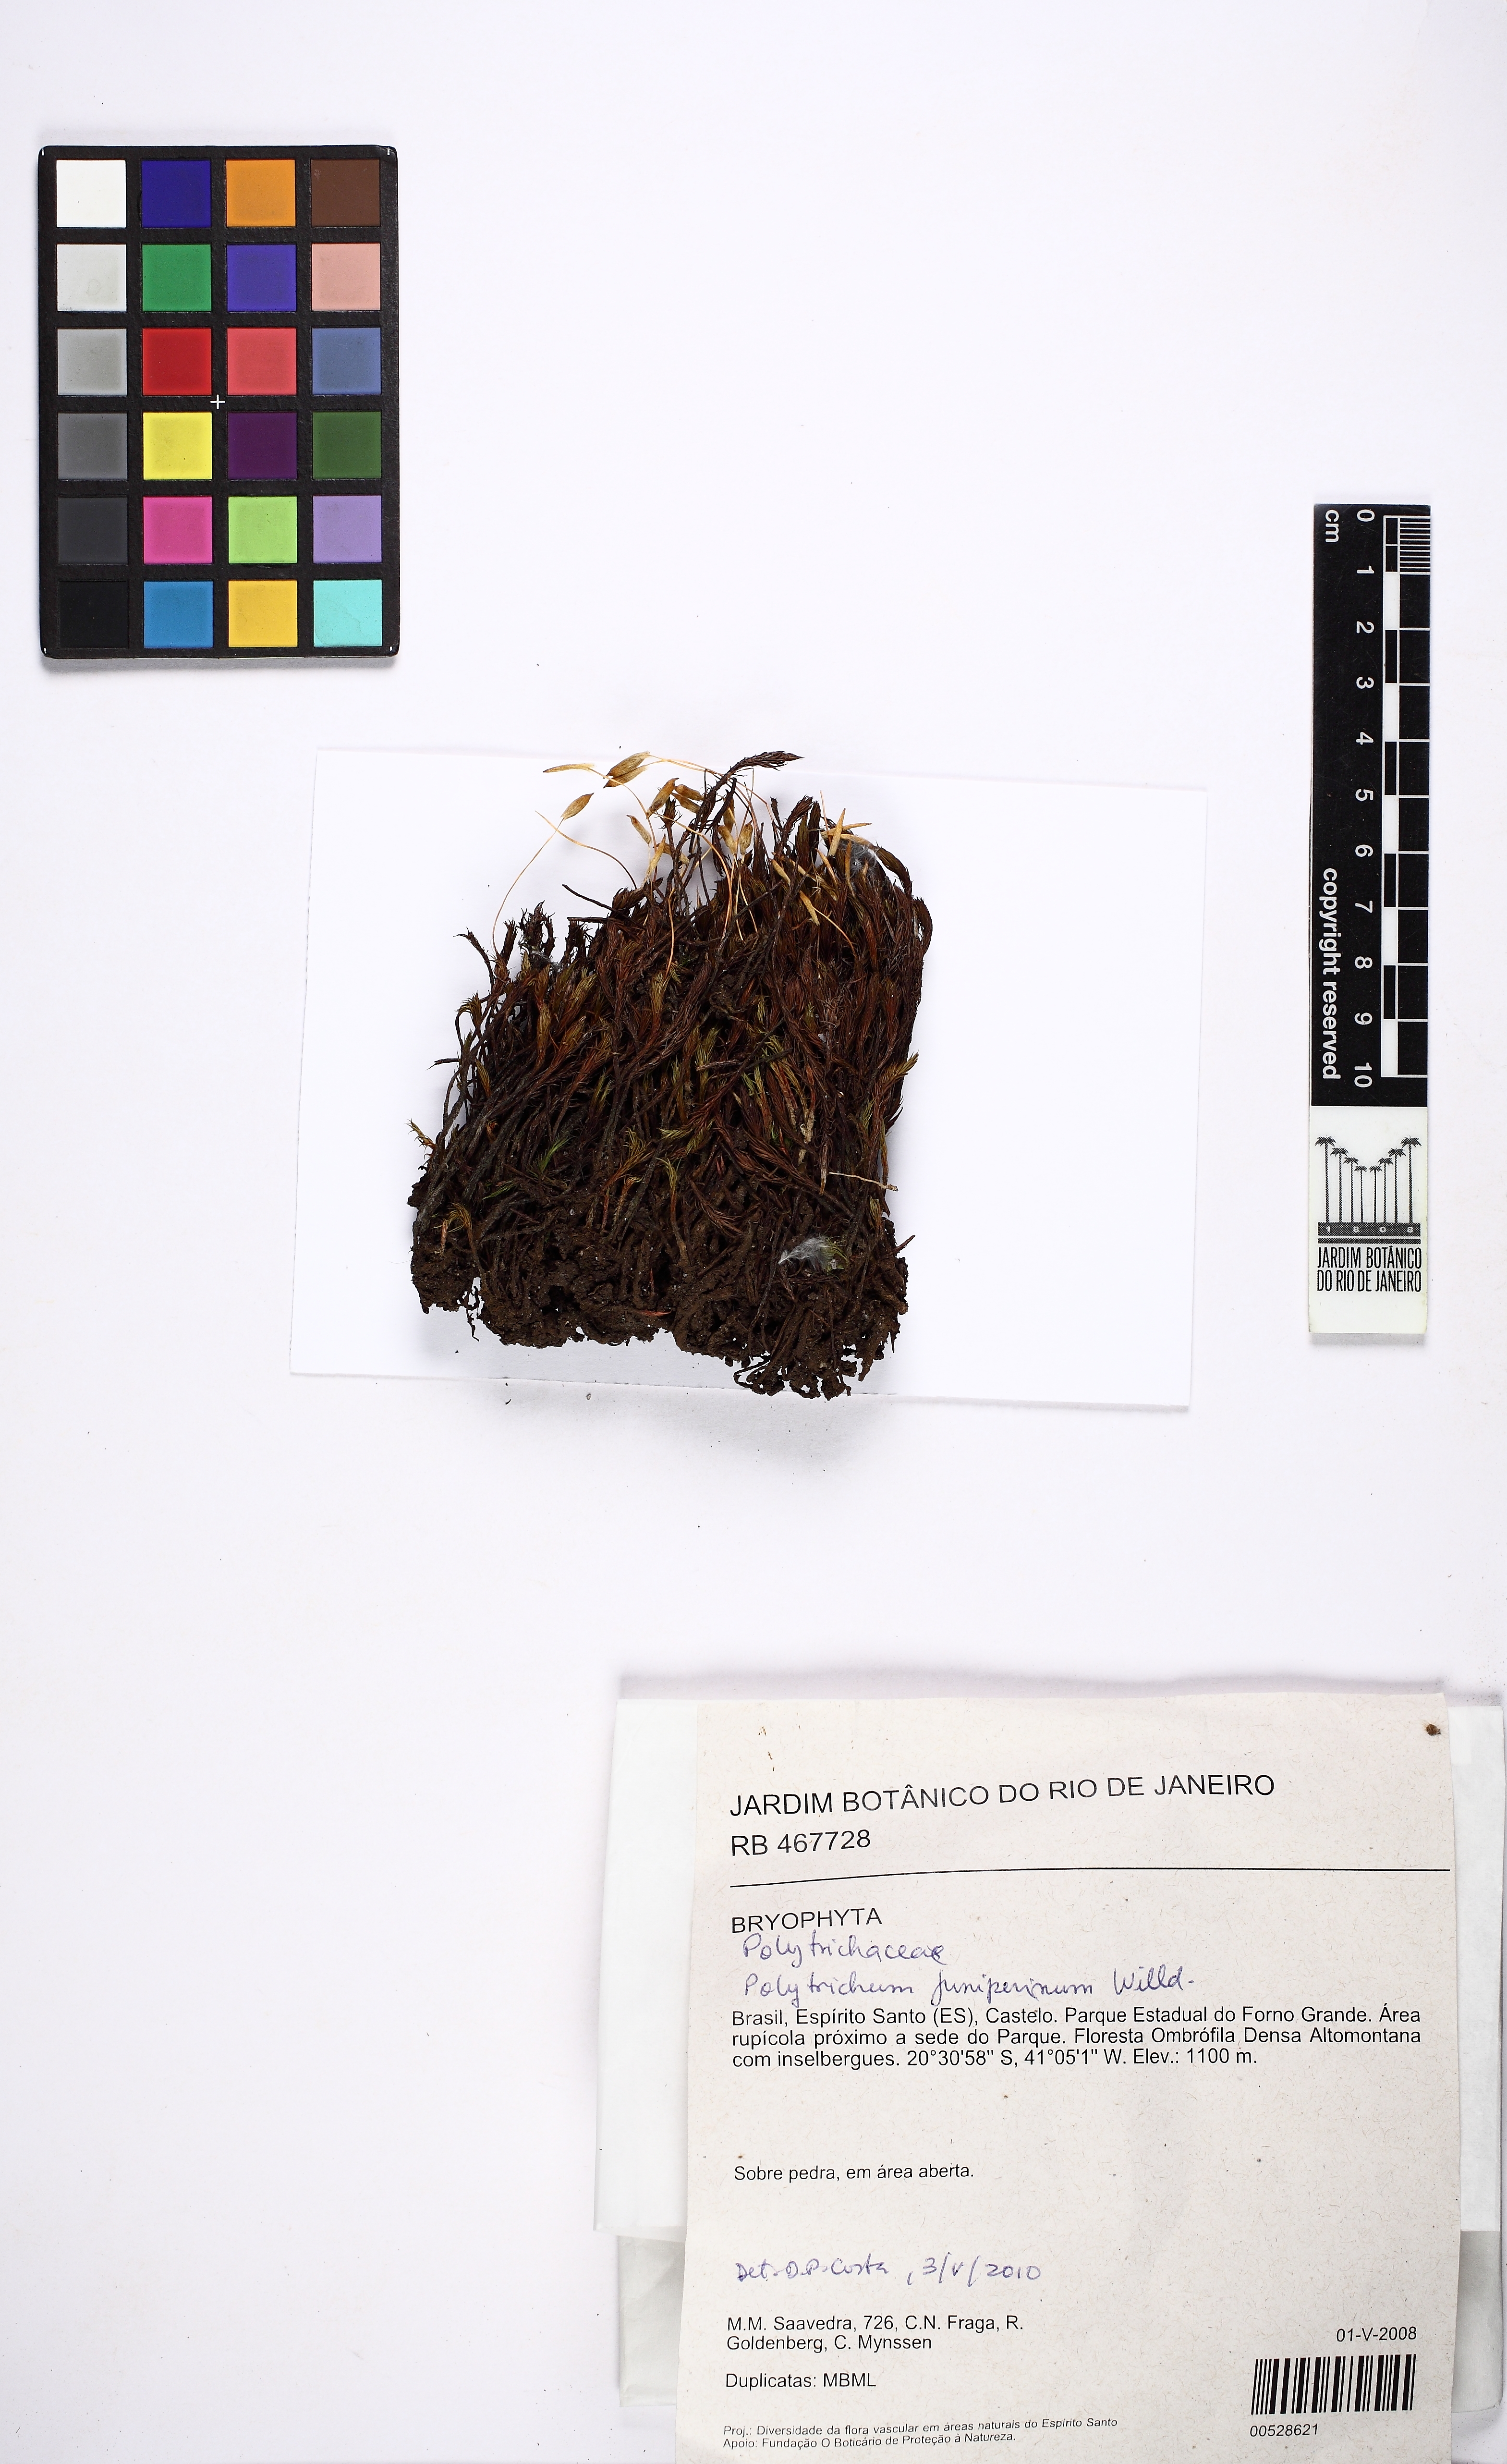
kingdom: Plantae
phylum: Bryophyta
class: Polytrichopsida
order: Polytrichales
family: Polytrichaceae
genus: Polytrichum
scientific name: Polytrichum juniperinum
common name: Juniper haircap moss
